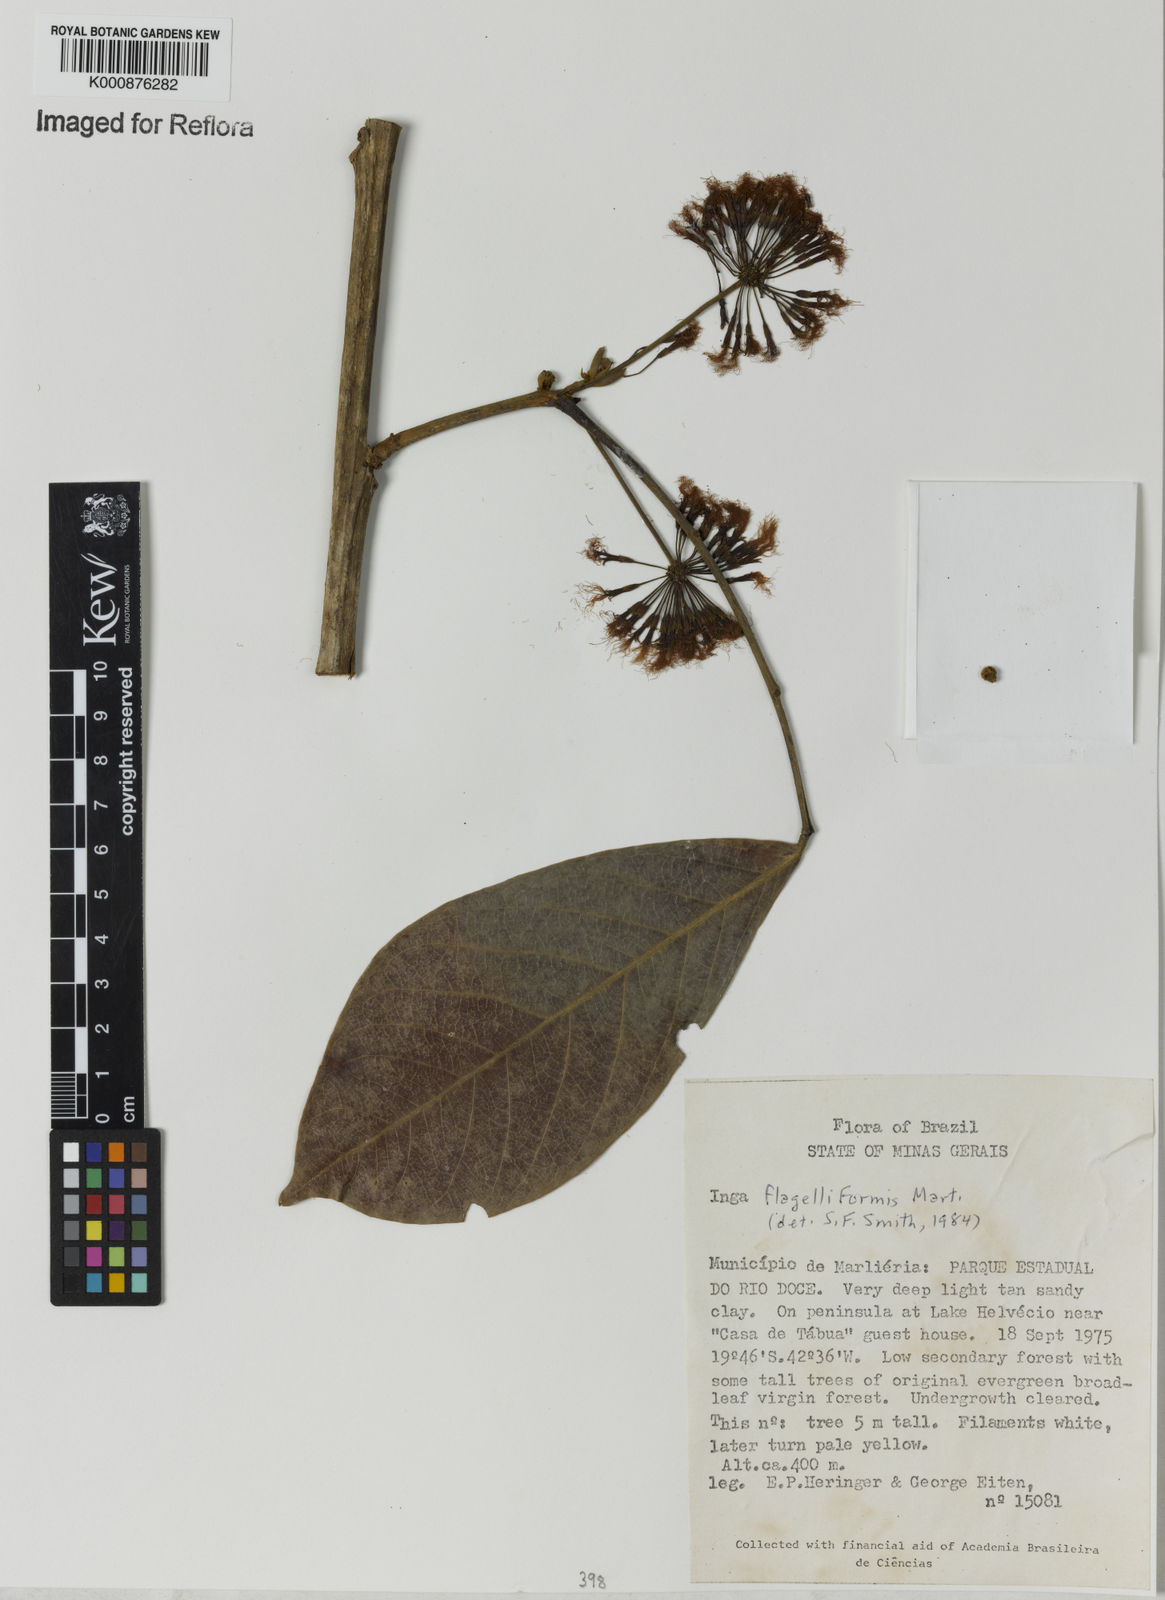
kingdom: Plantae
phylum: Tracheophyta
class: Magnoliopsida
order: Fabales
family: Fabaceae
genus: Inga
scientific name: Inga flagelliformis
